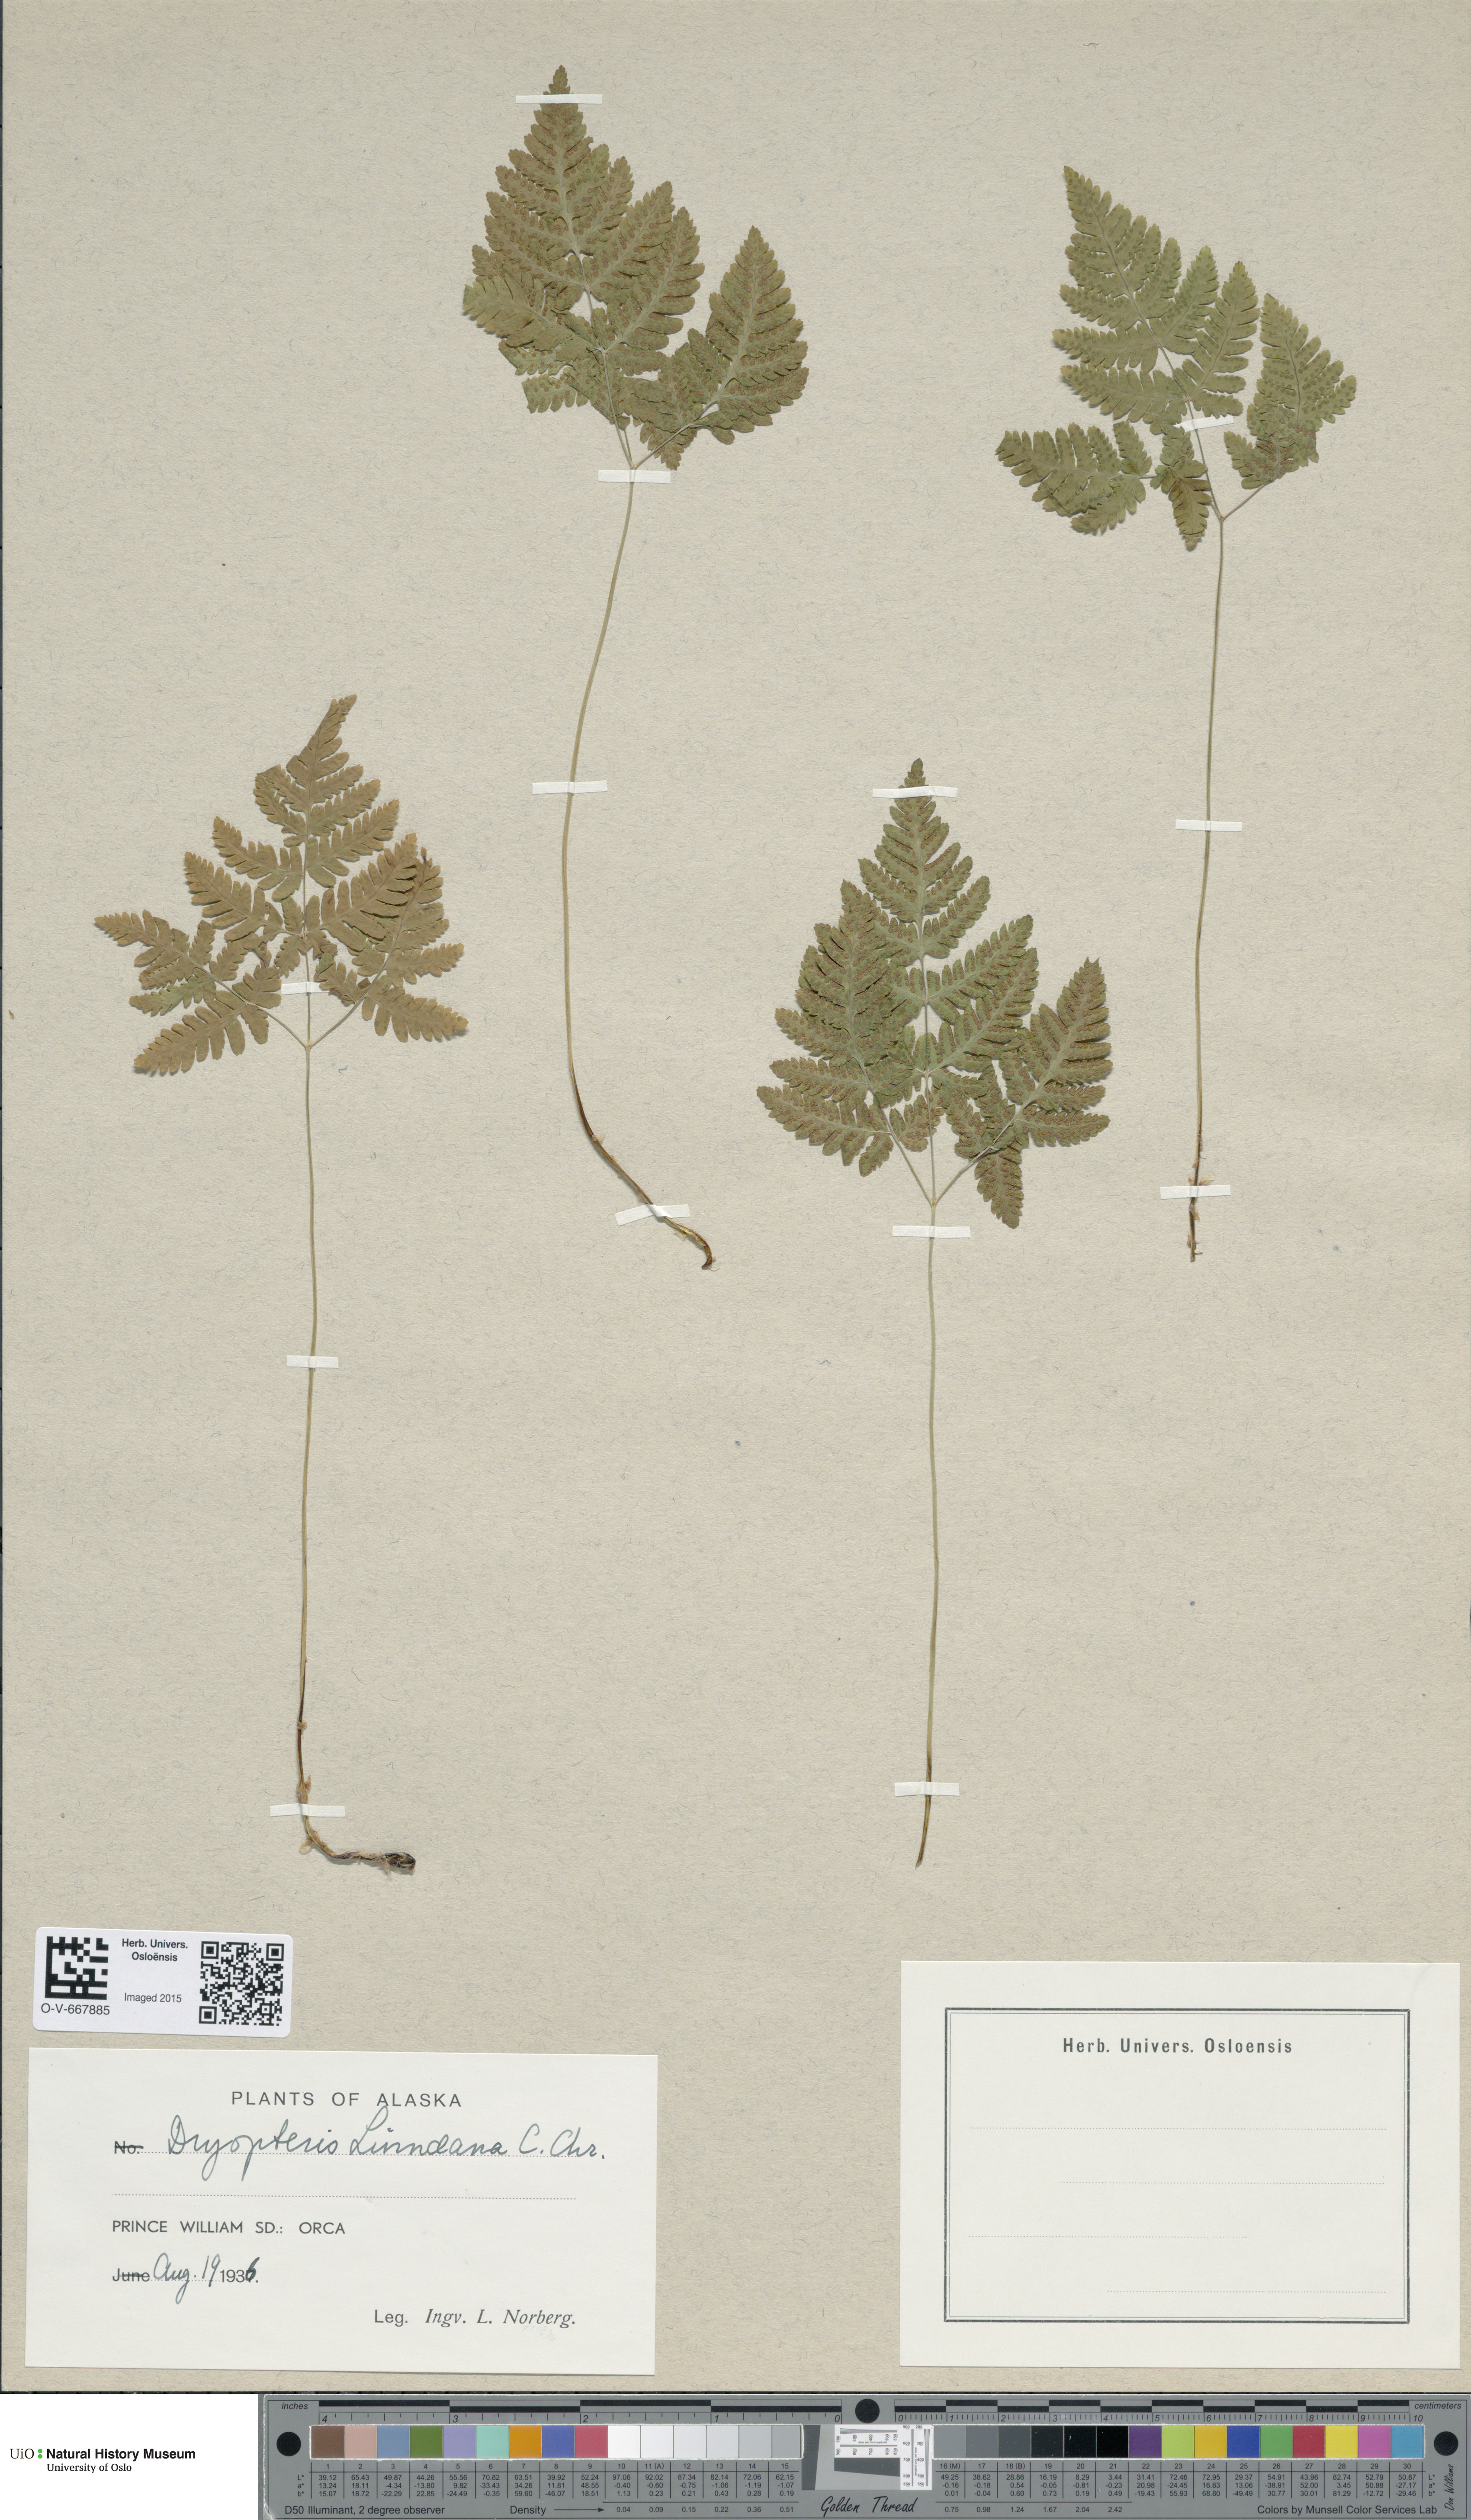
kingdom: Plantae
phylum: Tracheophyta
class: Polypodiopsida
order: Polypodiales
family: Cystopteridaceae
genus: Gymnocarpium
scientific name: Gymnocarpium dryopteris
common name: Oak fern
